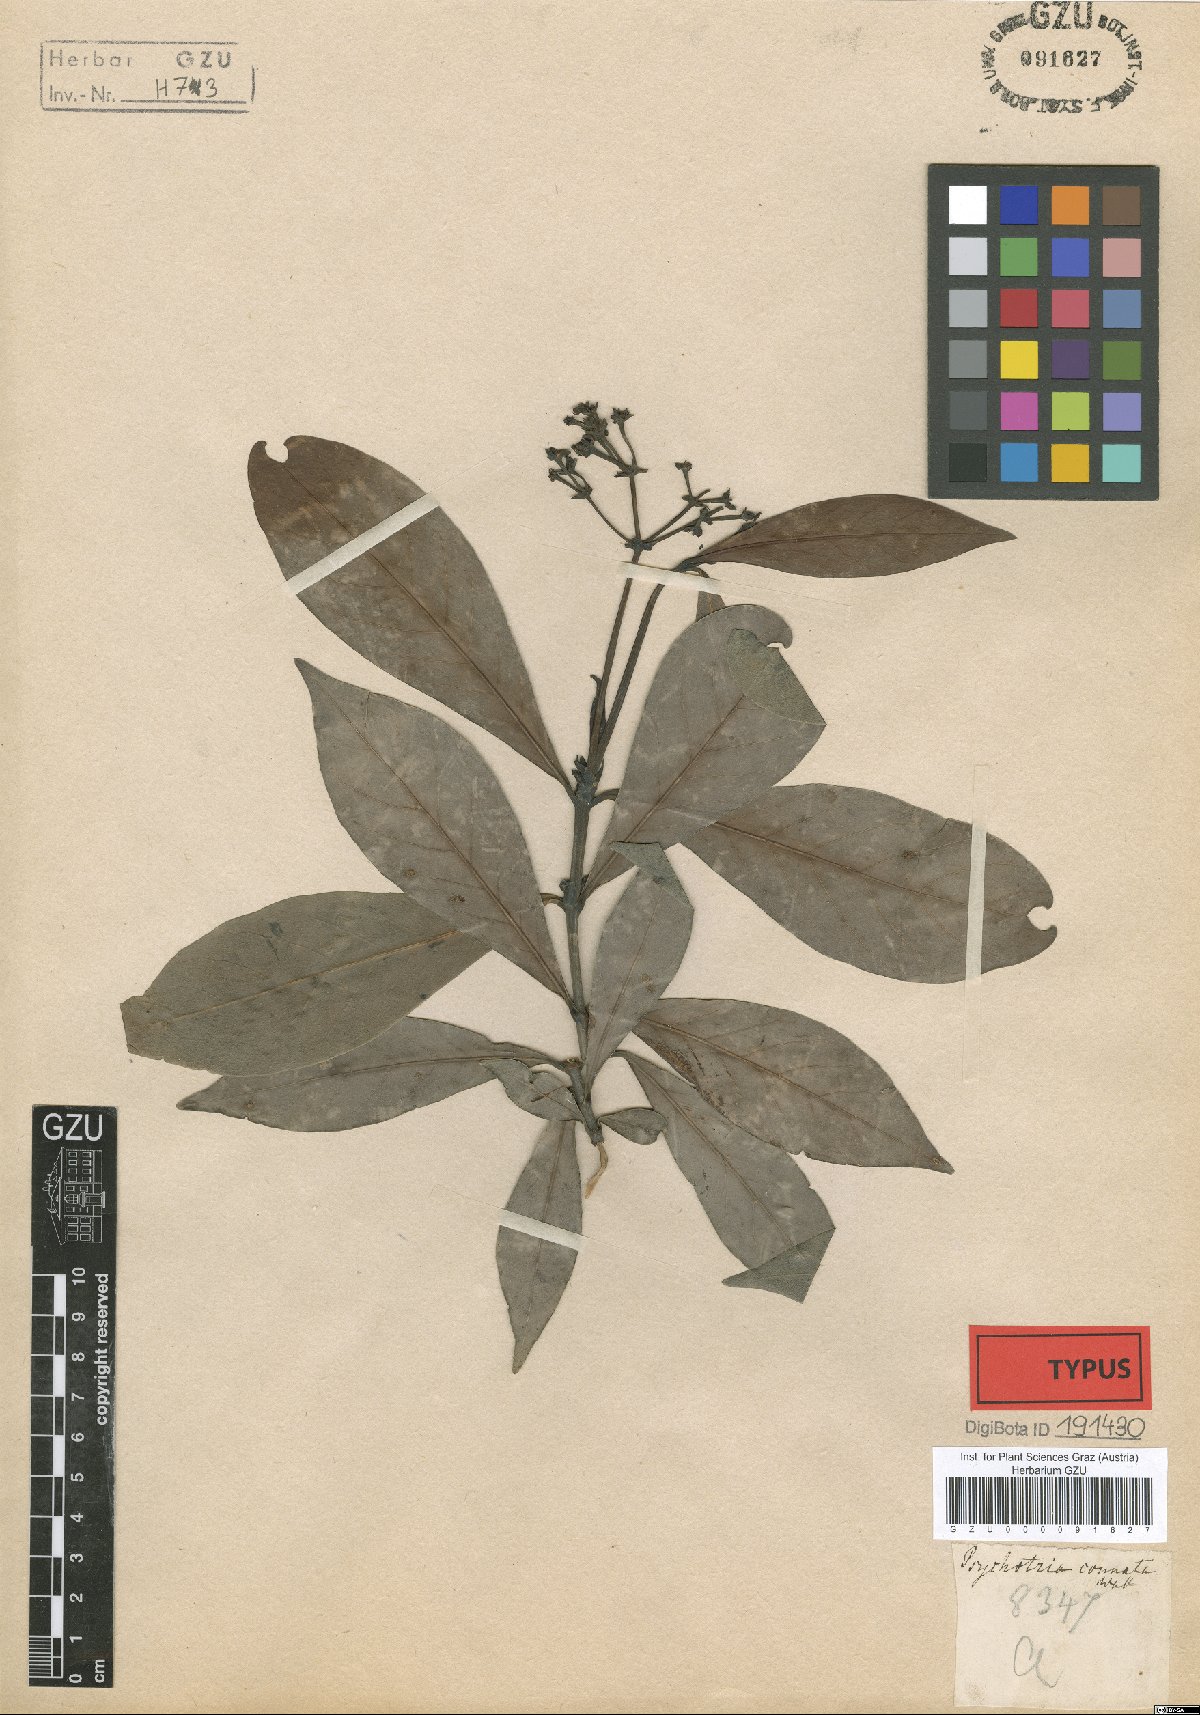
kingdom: Plantae
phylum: Tracheophyta
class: Magnoliopsida
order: Gentianales
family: Rubiaceae
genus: Psychotria
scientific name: Psychotria connata
